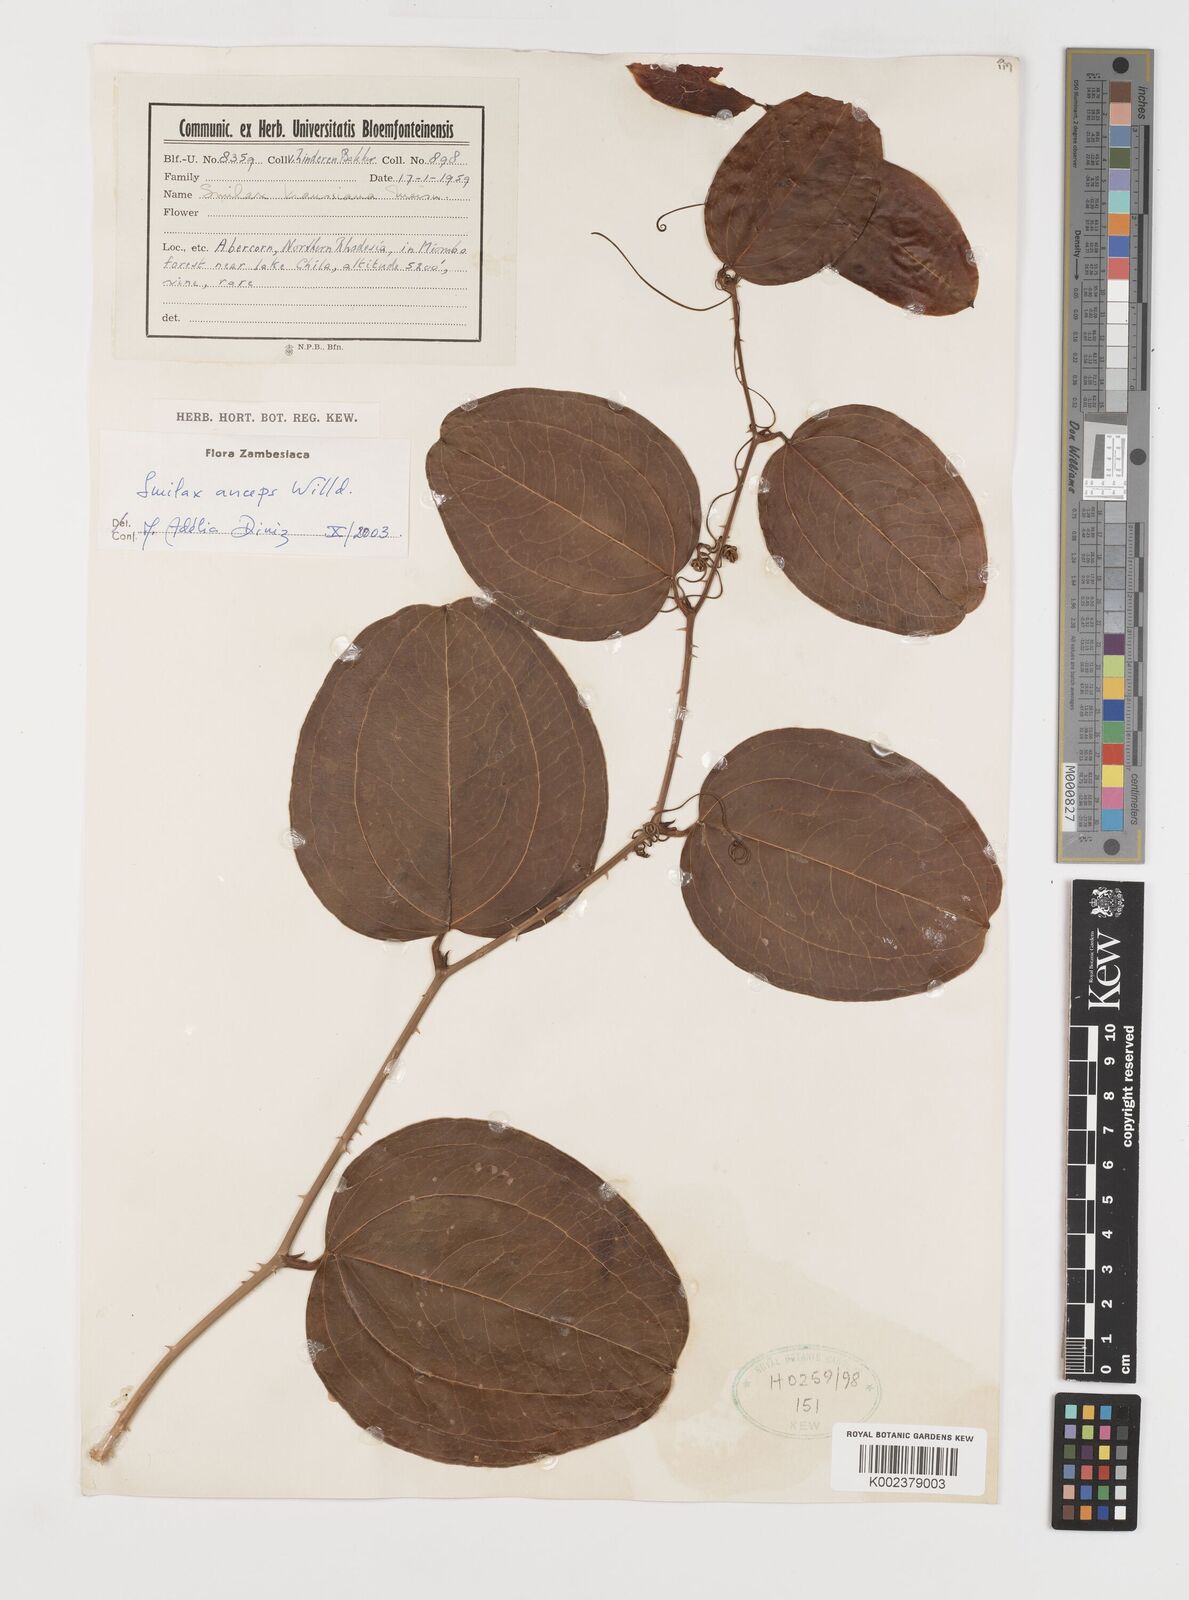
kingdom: Plantae
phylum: Tracheophyta
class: Liliopsida
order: Liliales
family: Smilacaceae
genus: Smilax
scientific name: Smilax anceps
